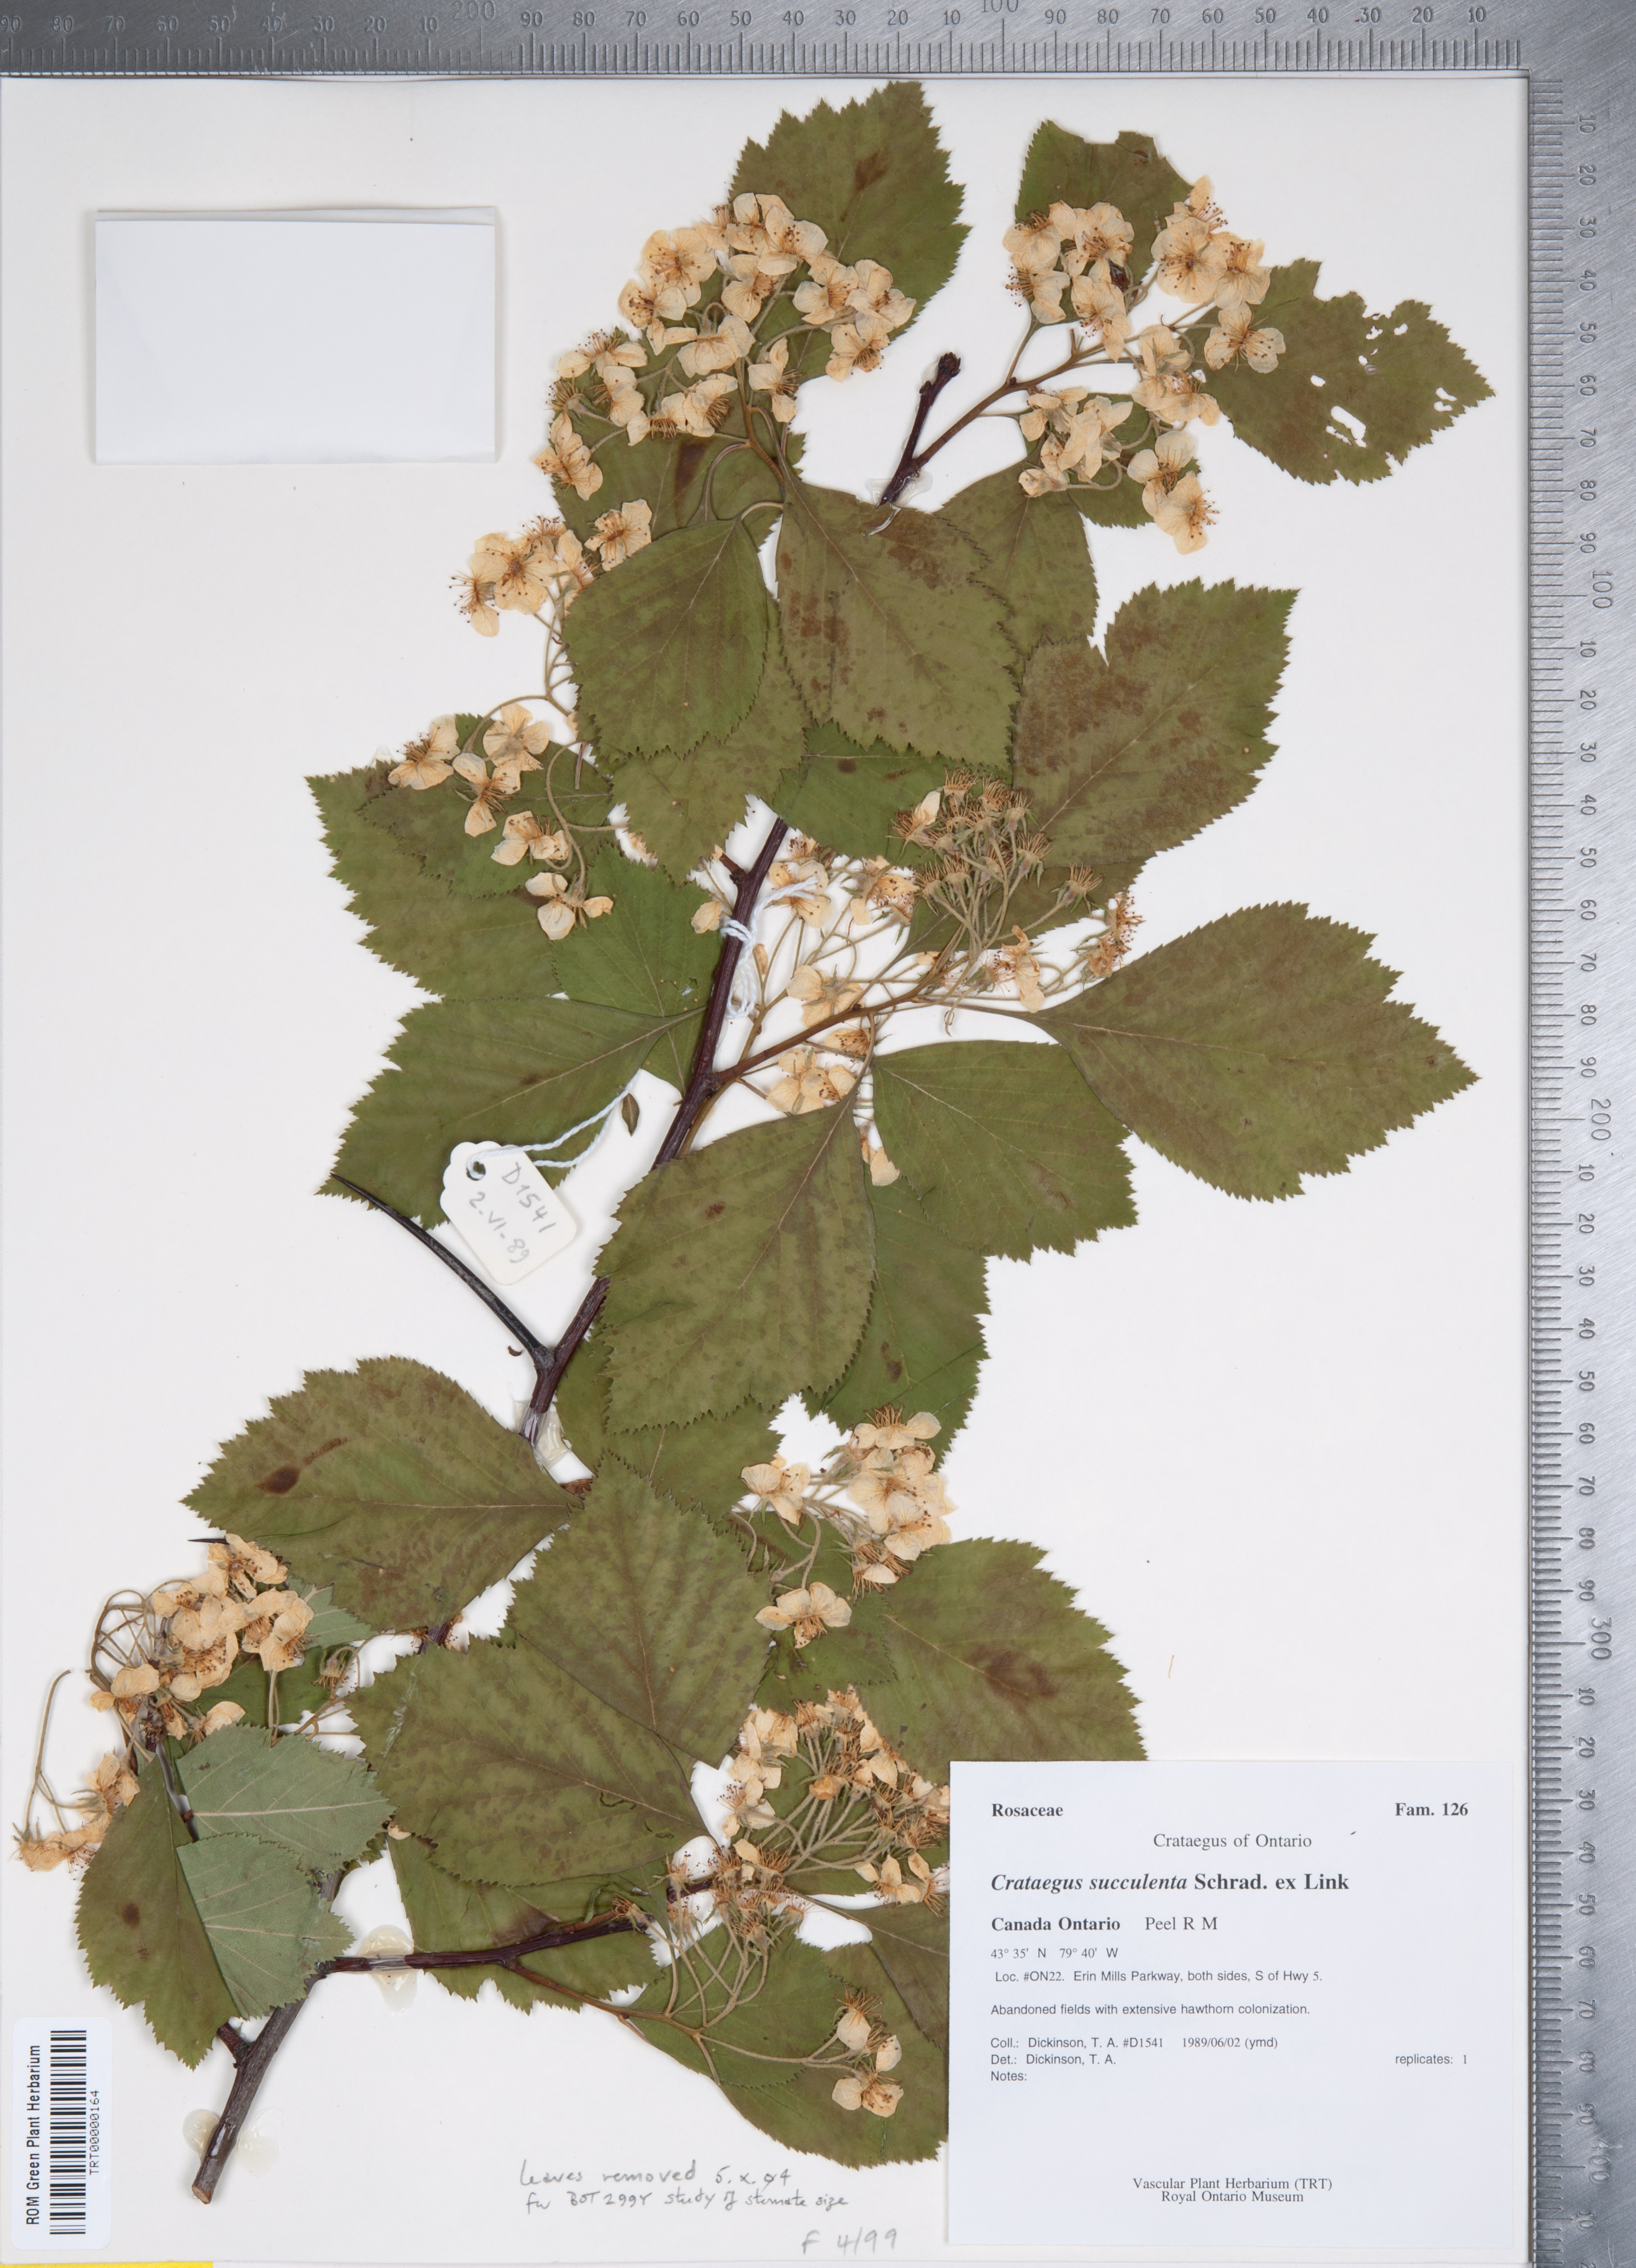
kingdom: Plantae
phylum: Tracheophyta
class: Magnoliopsida
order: Rosales
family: Rosaceae
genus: Crataegus
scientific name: Crataegus succulenta
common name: Fleshy hawthorn
